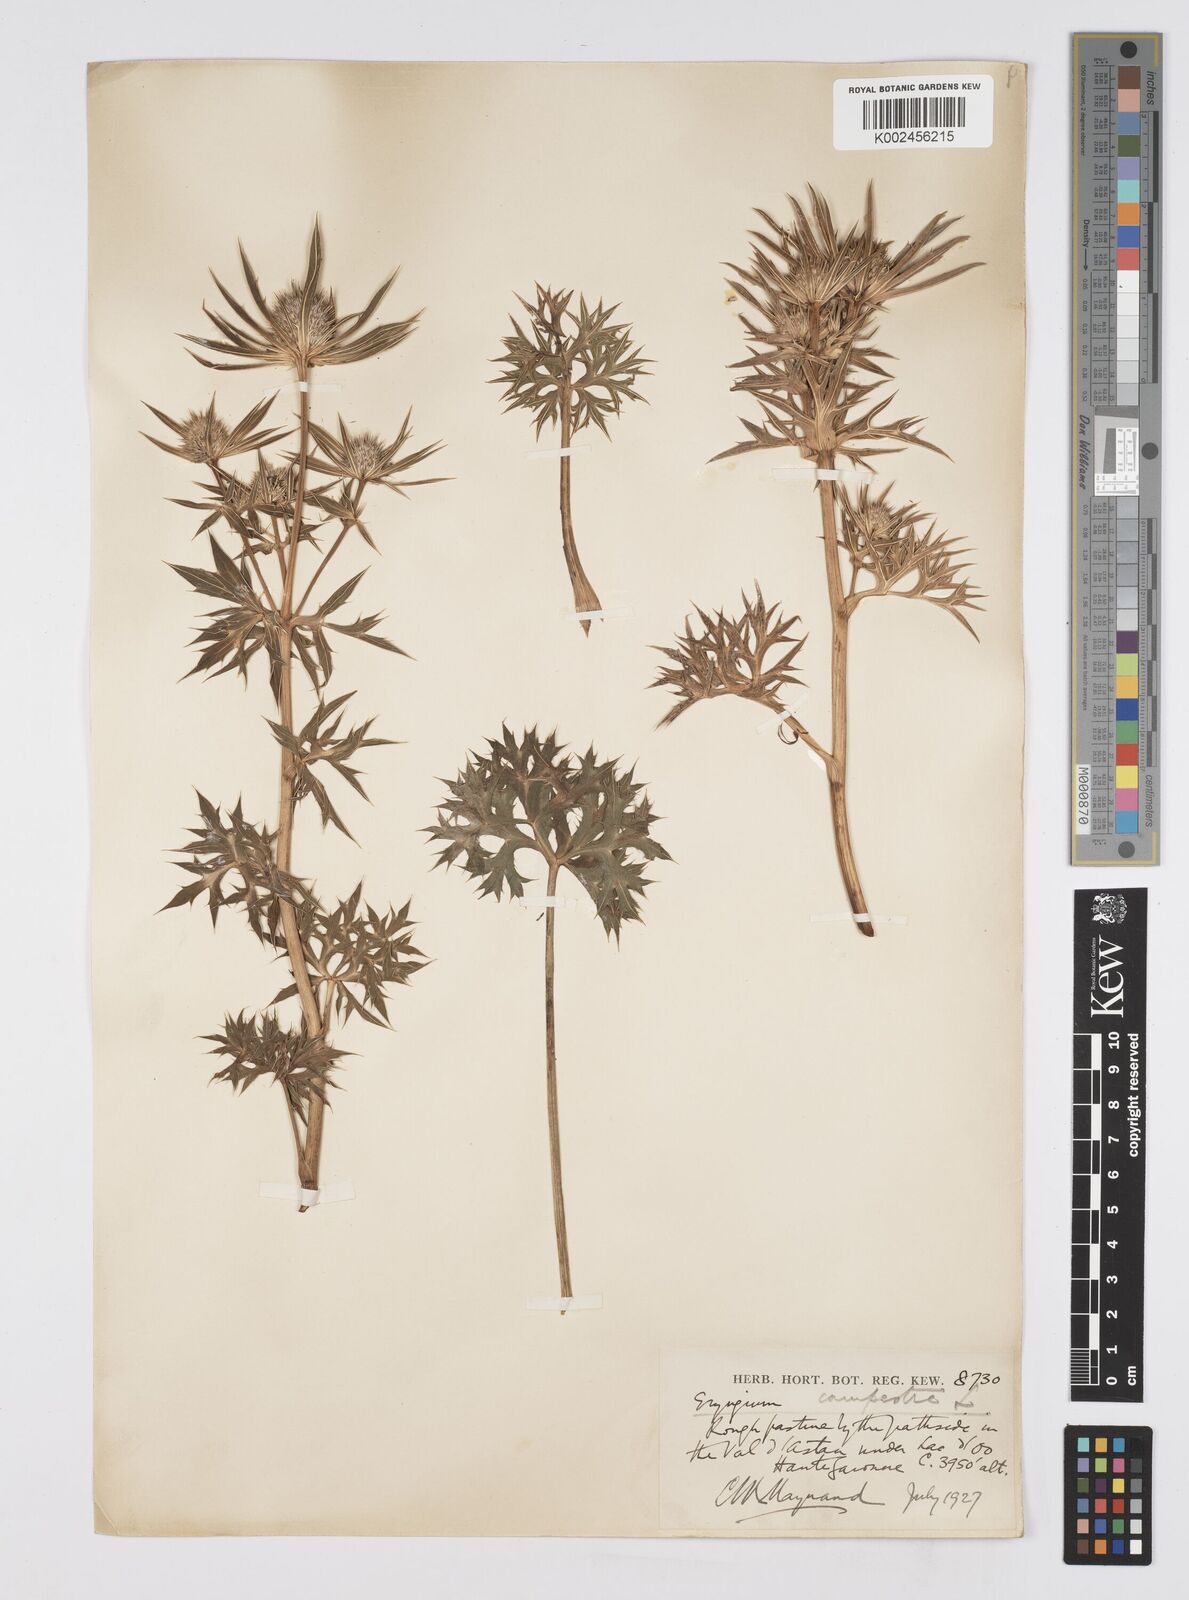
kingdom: Plantae
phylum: Tracheophyta
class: Magnoliopsida
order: Apiales
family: Apiaceae
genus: Eryngium
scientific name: Eryngium bourgatii
